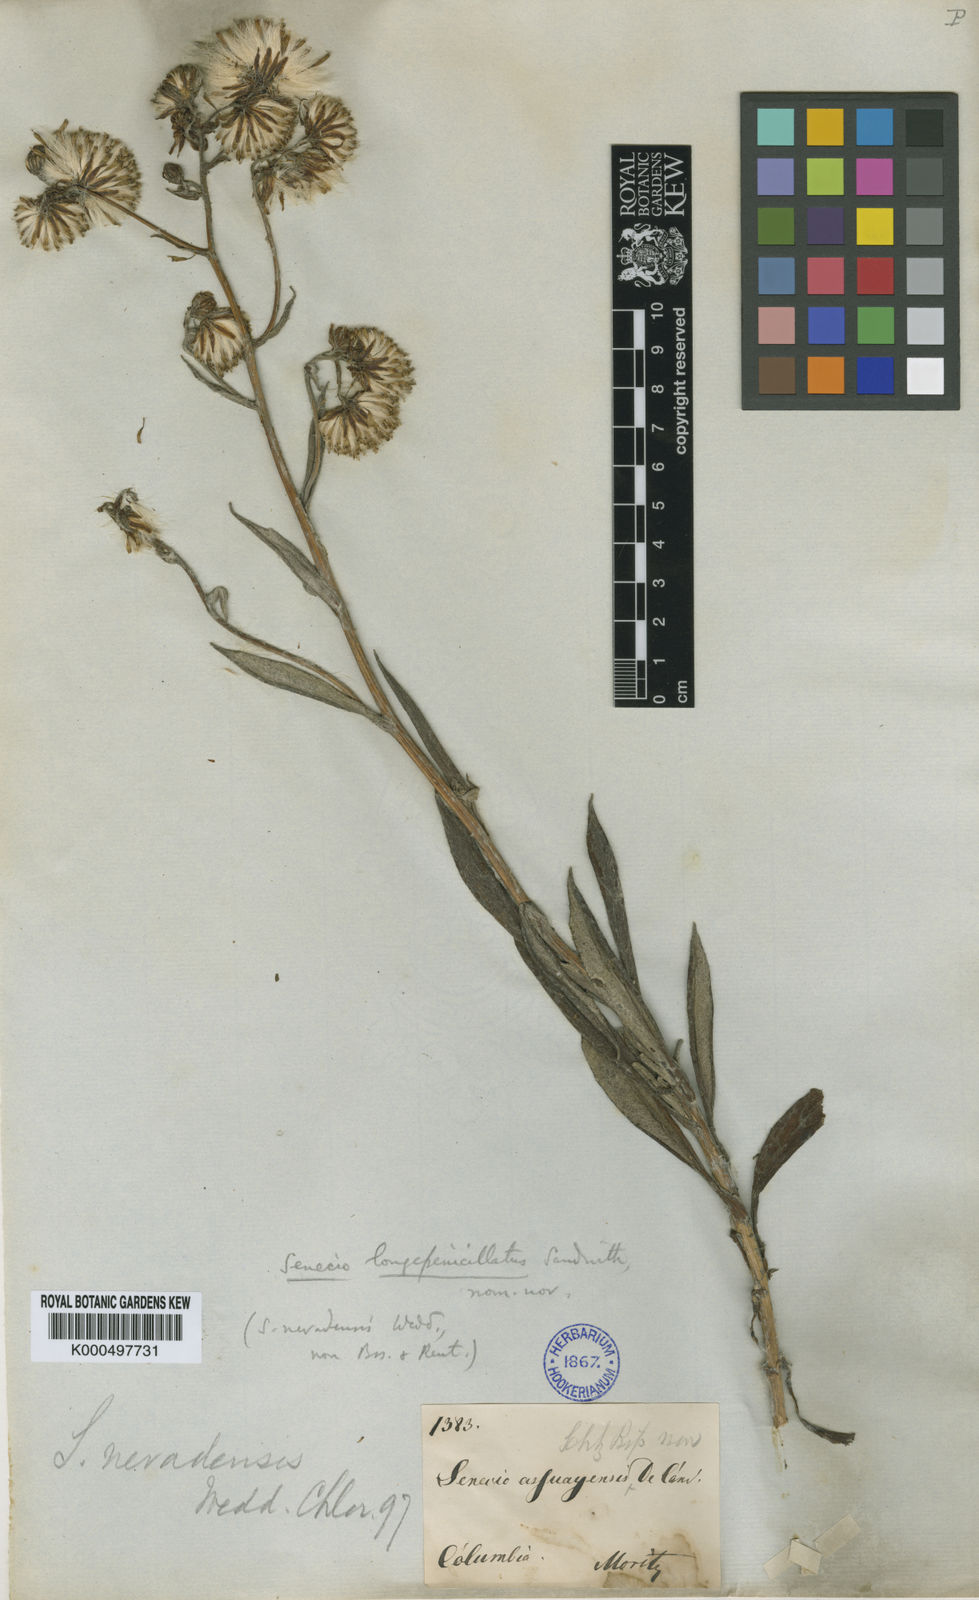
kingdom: Plantae
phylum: Tracheophyta
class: Magnoliopsida
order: Asterales
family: Asteraceae
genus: Lasiocephalus
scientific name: Lasiocephalus
